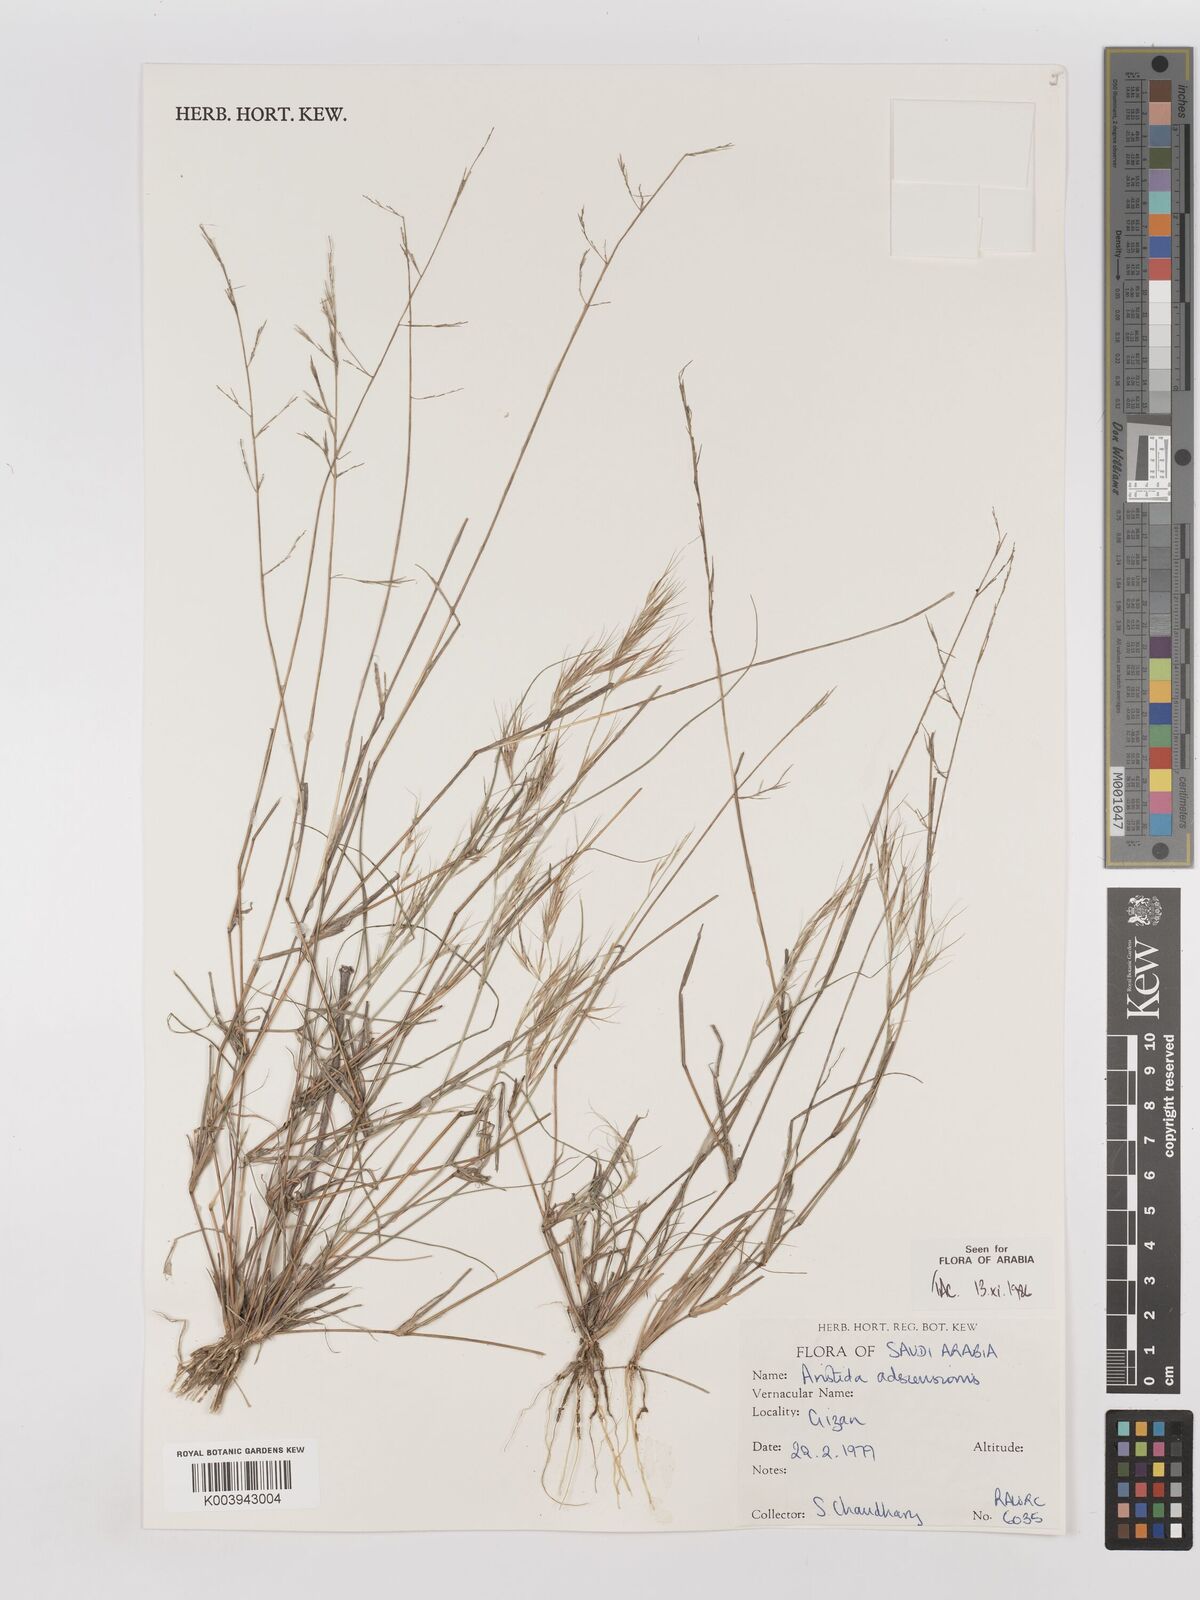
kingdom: Plantae
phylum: Tracheophyta
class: Liliopsida
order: Poales
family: Poaceae
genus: Aristida
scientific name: Aristida adscensionis
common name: Sixweeks threeawn
